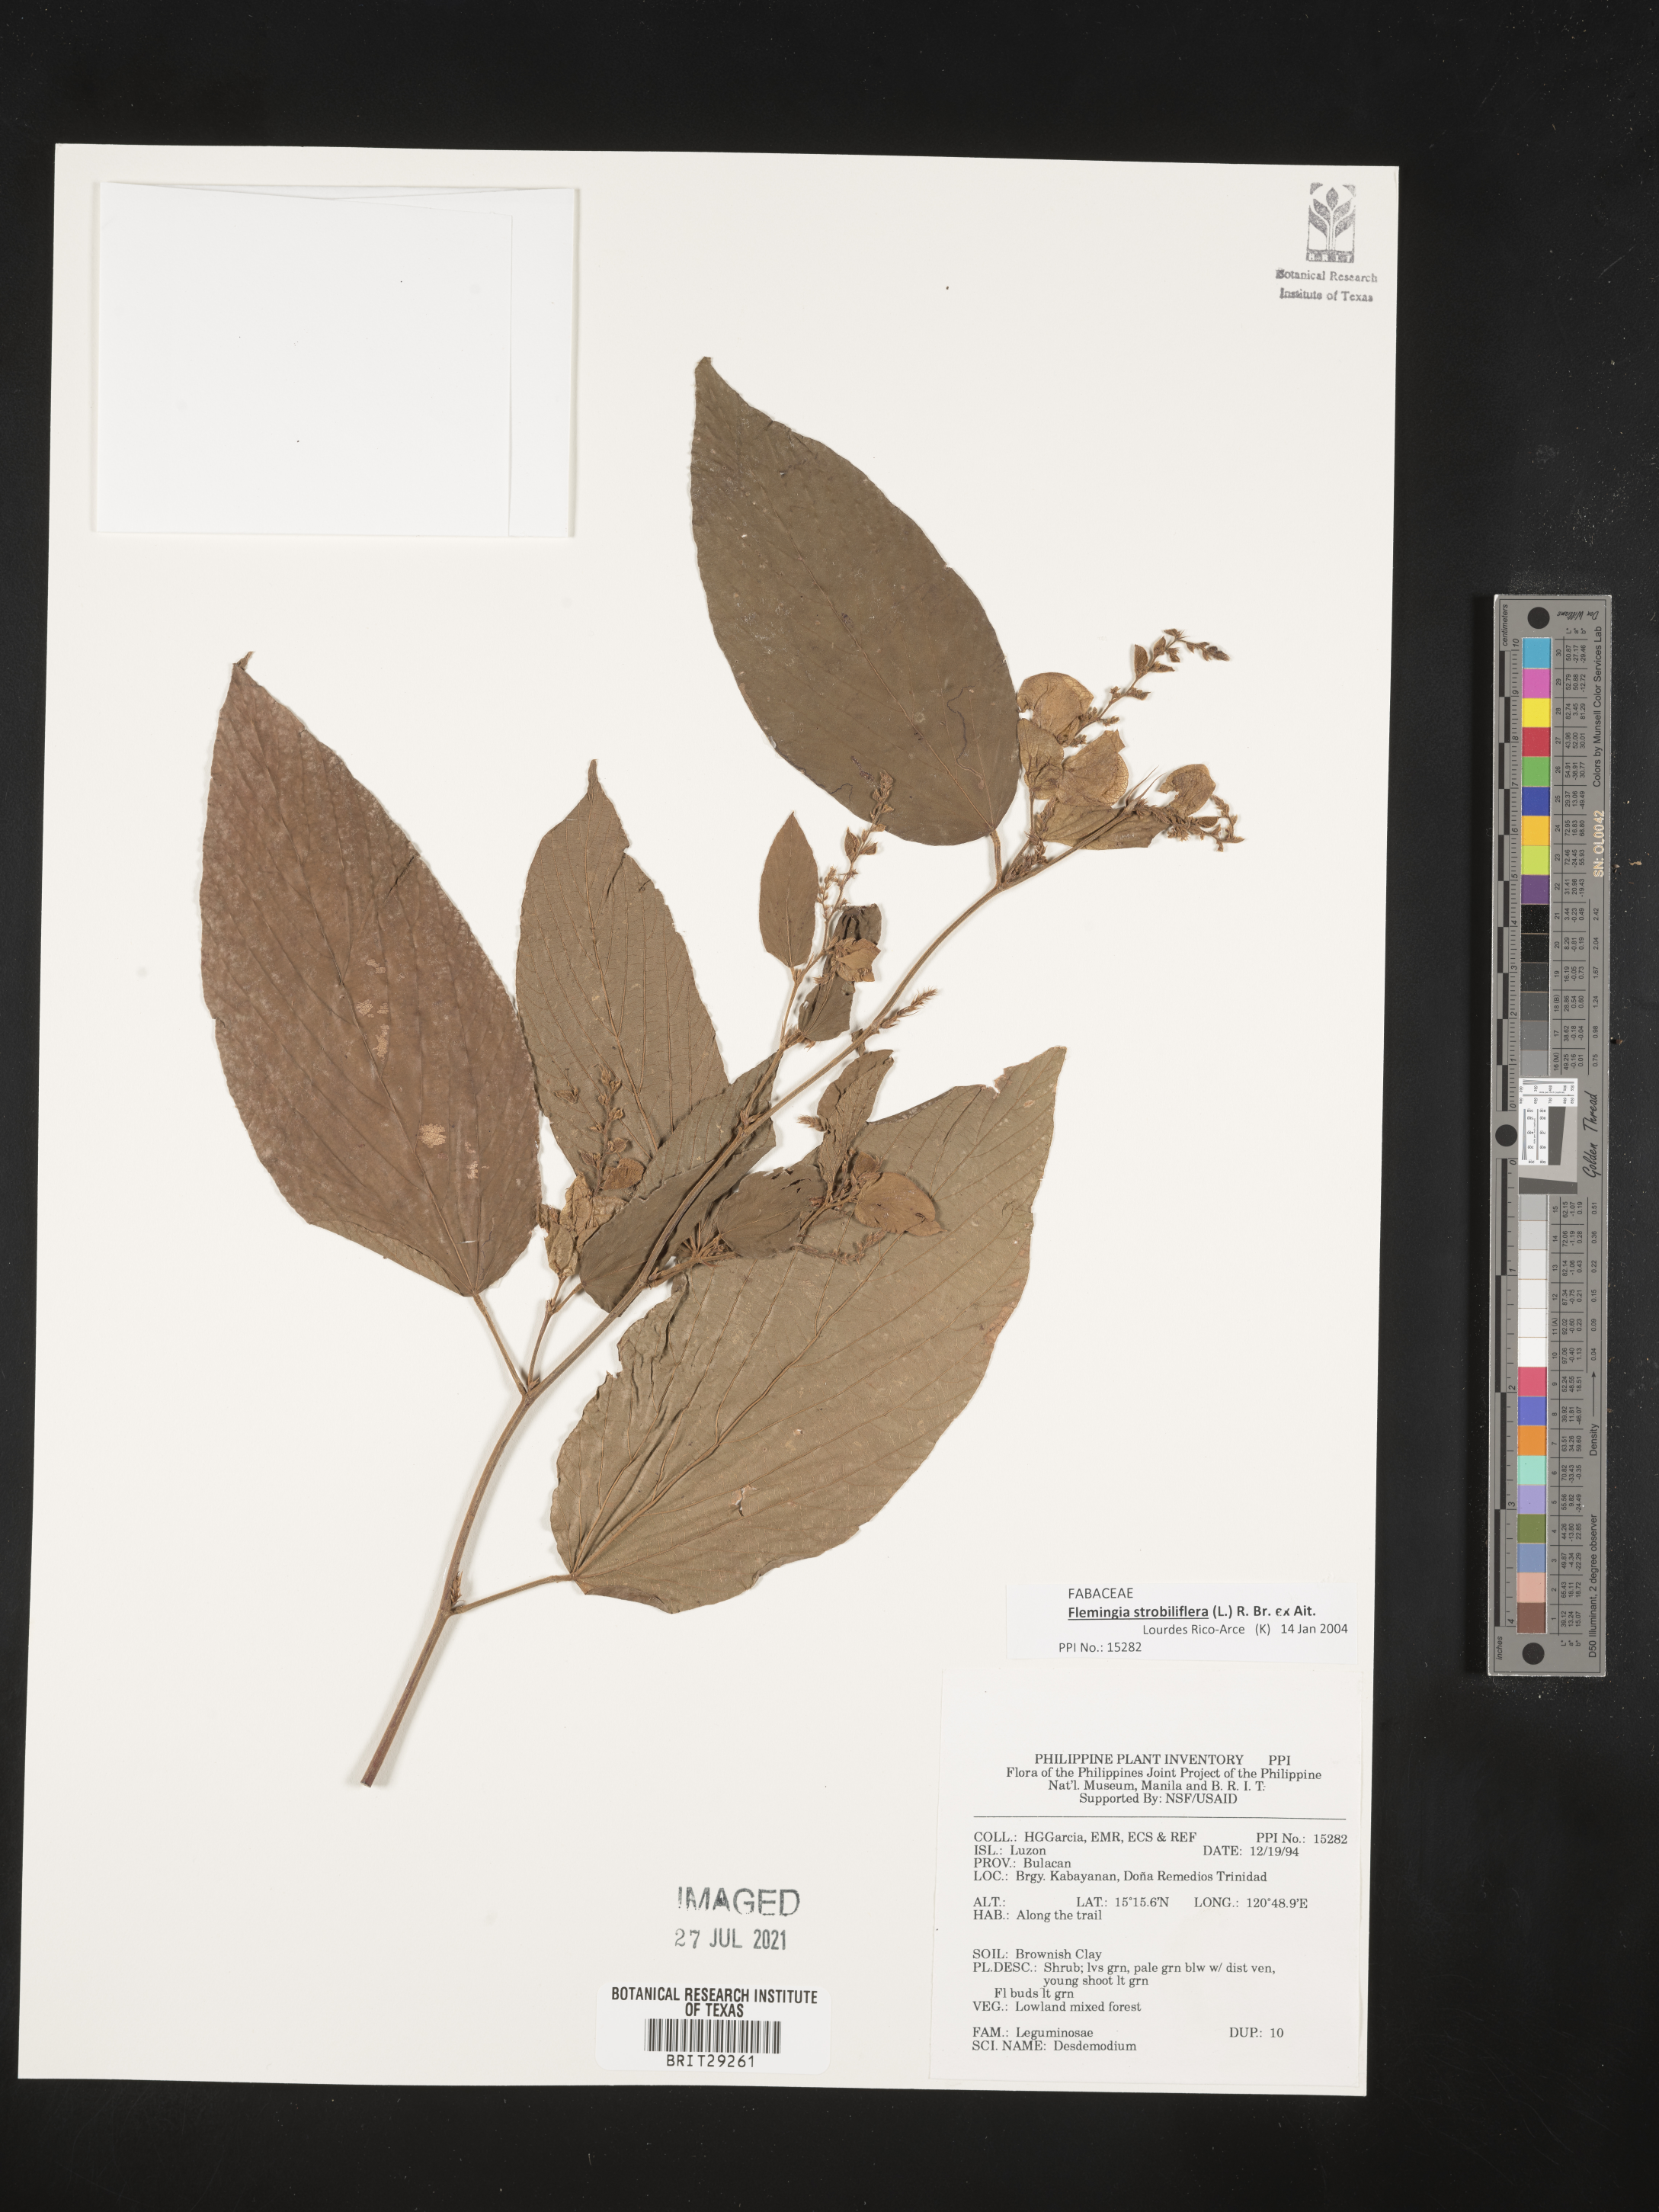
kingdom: Plantae
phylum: Tracheophyta
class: Magnoliopsida
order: Fabales
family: Fabaceae
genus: Flemingia
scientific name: Flemingia strobilifera
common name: Wild hops
